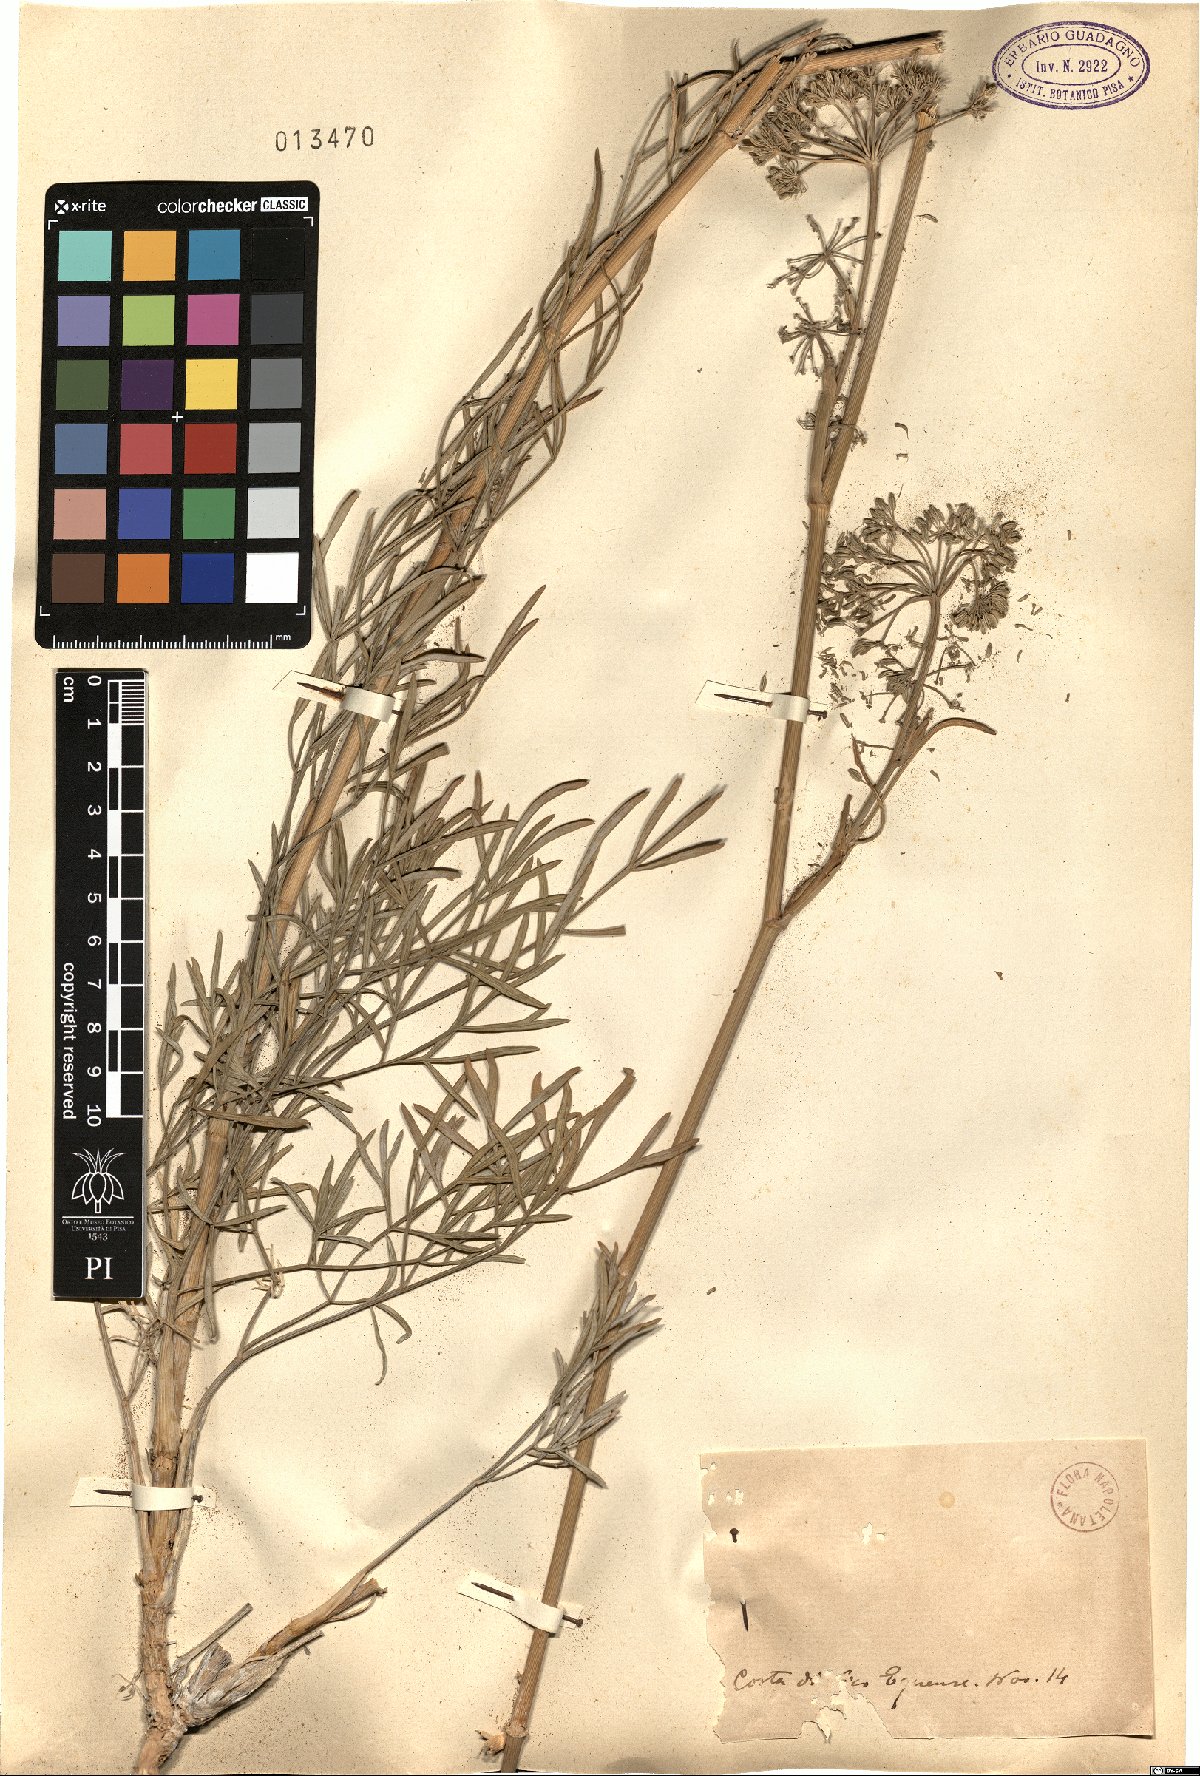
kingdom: Plantae
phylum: Tracheophyta
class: Magnoliopsida
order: Apiales
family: Apiaceae
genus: Seseli
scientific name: Seseli
